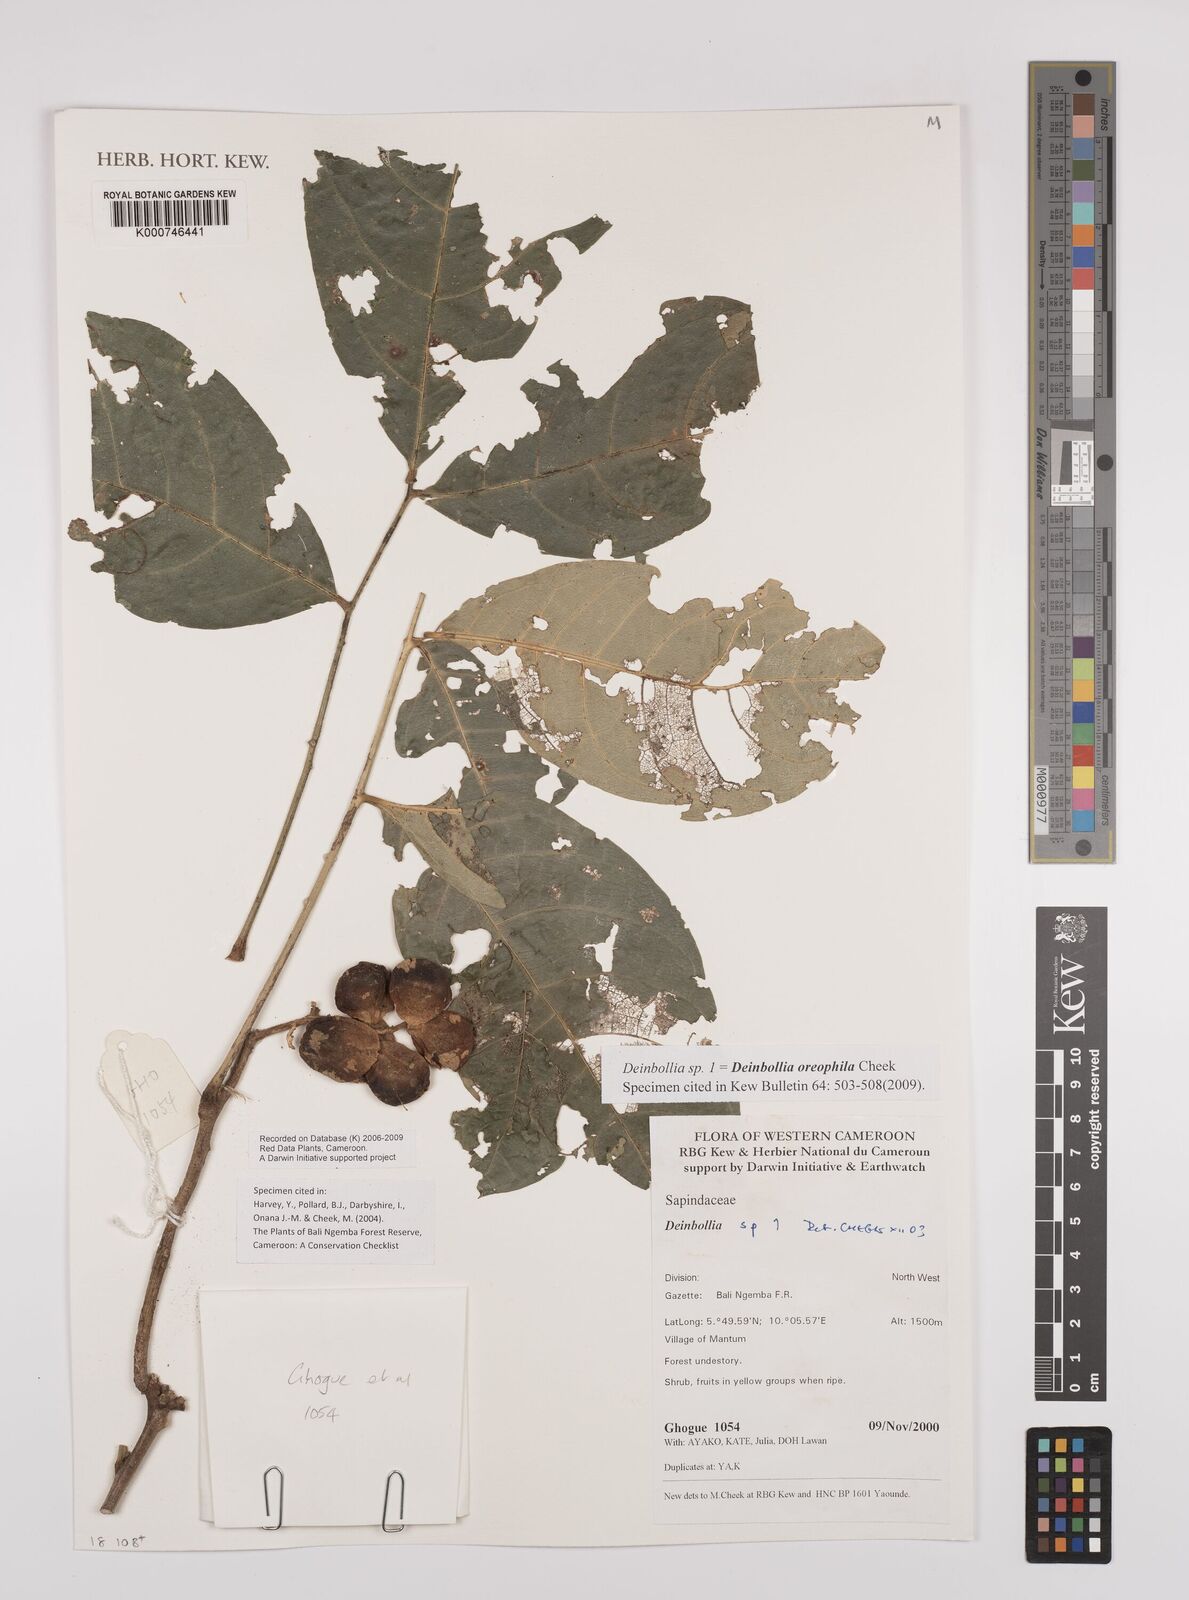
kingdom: Plantae
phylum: Tracheophyta
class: Magnoliopsida
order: Sapindales
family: Sapindaceae
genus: Deinbollia
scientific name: Deinbollia oreophila
